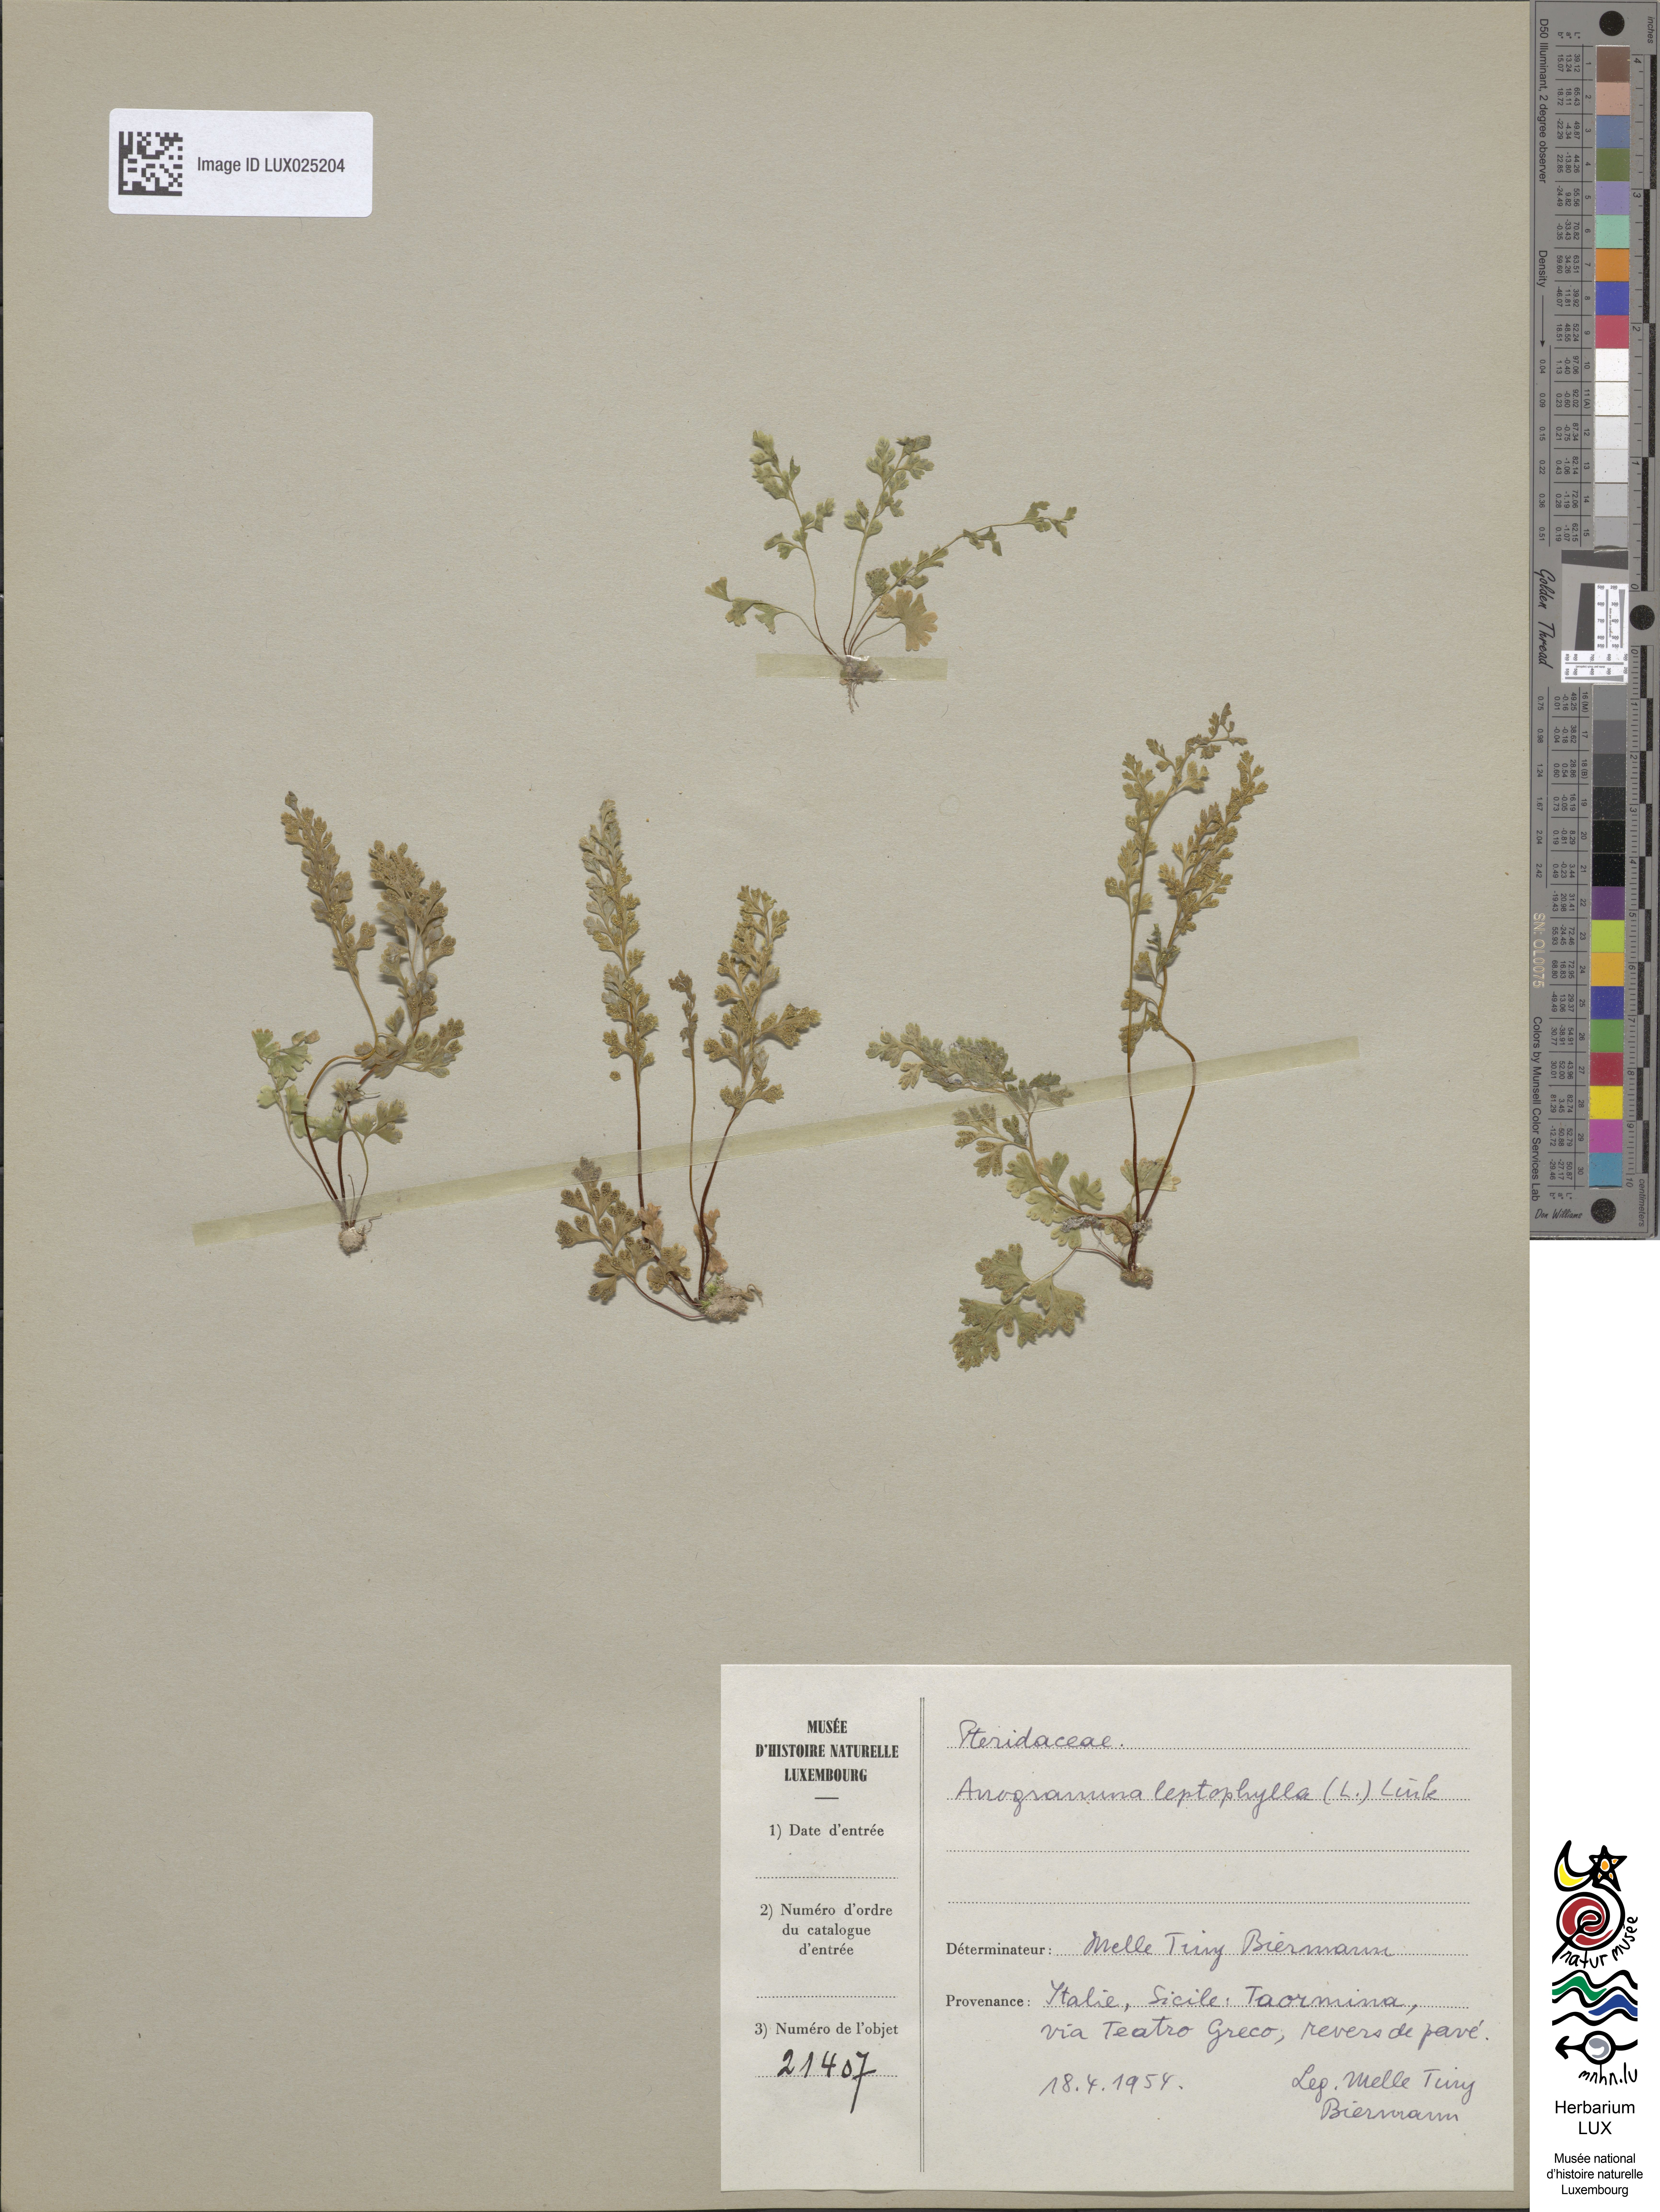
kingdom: Plantae
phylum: Tracheophyta
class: Polypodiopsida
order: Polypodiales
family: Pteridaceae
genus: Anogramma
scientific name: Anogramma leptophylla
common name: Jersey fern
